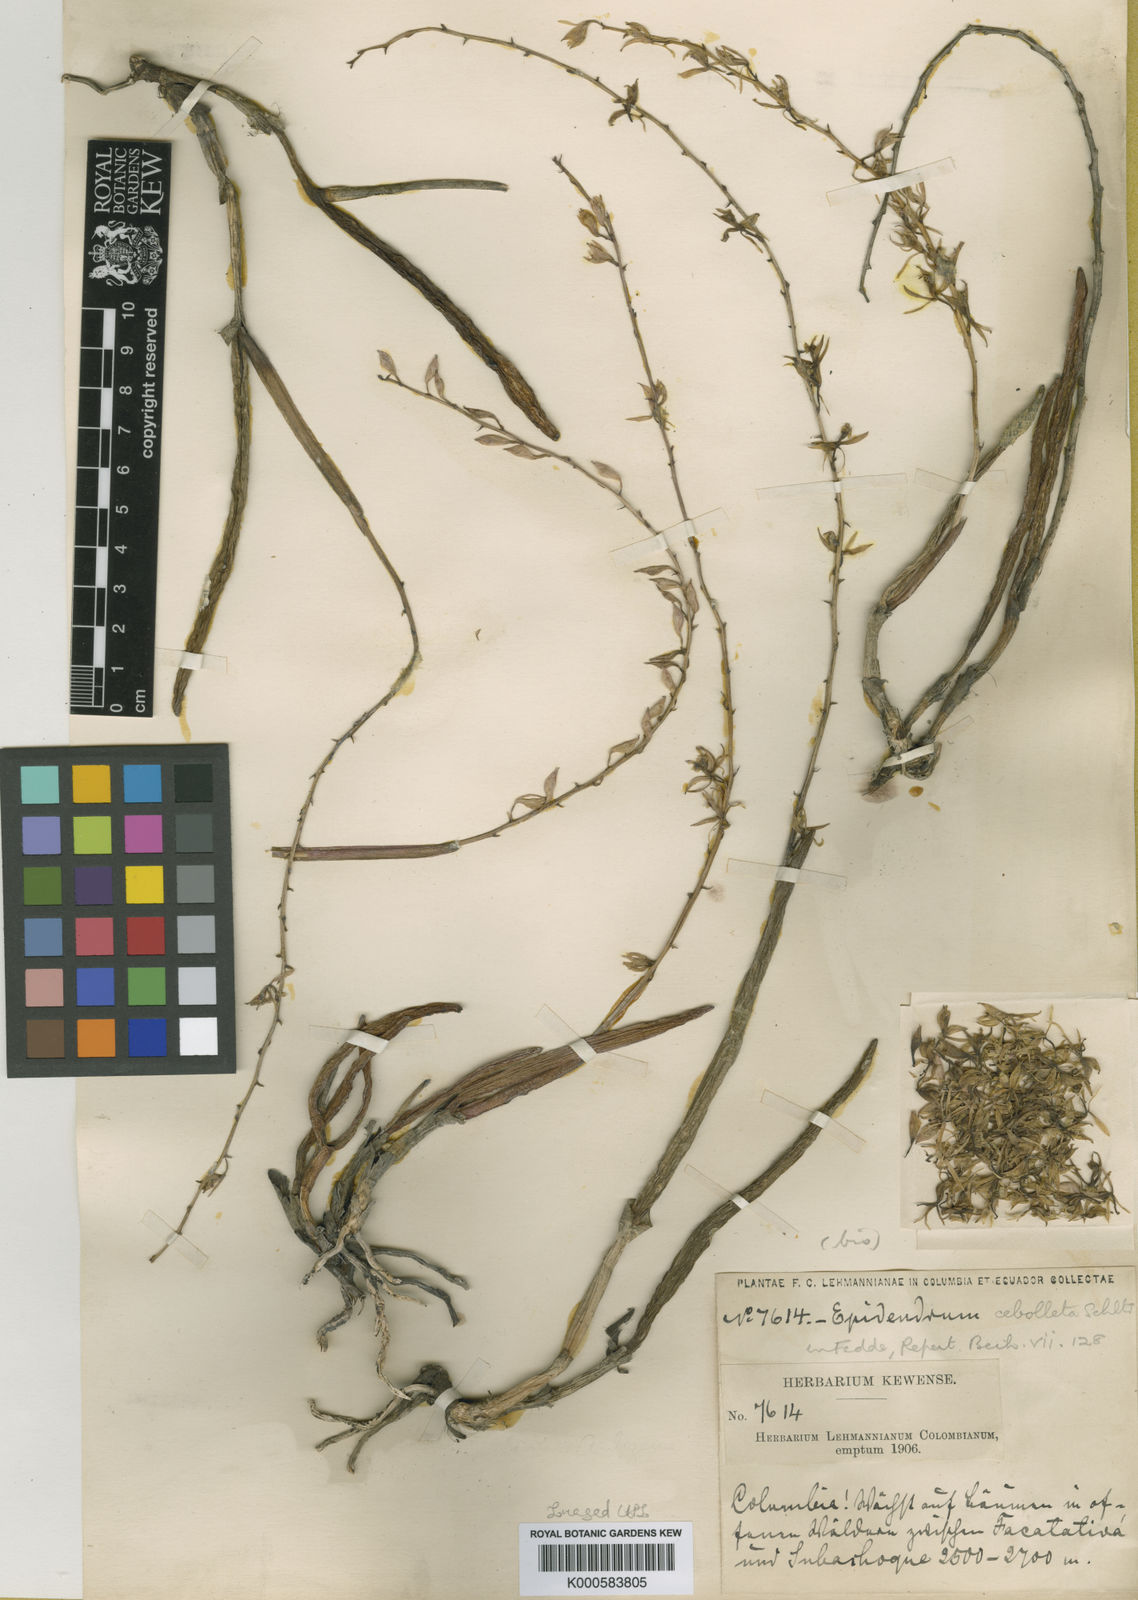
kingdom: Plantae
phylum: Tracheophyta
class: Liliopsida
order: Asparagales
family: Orchidaceae
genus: Epidendrum
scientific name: Epidendrum uribei
